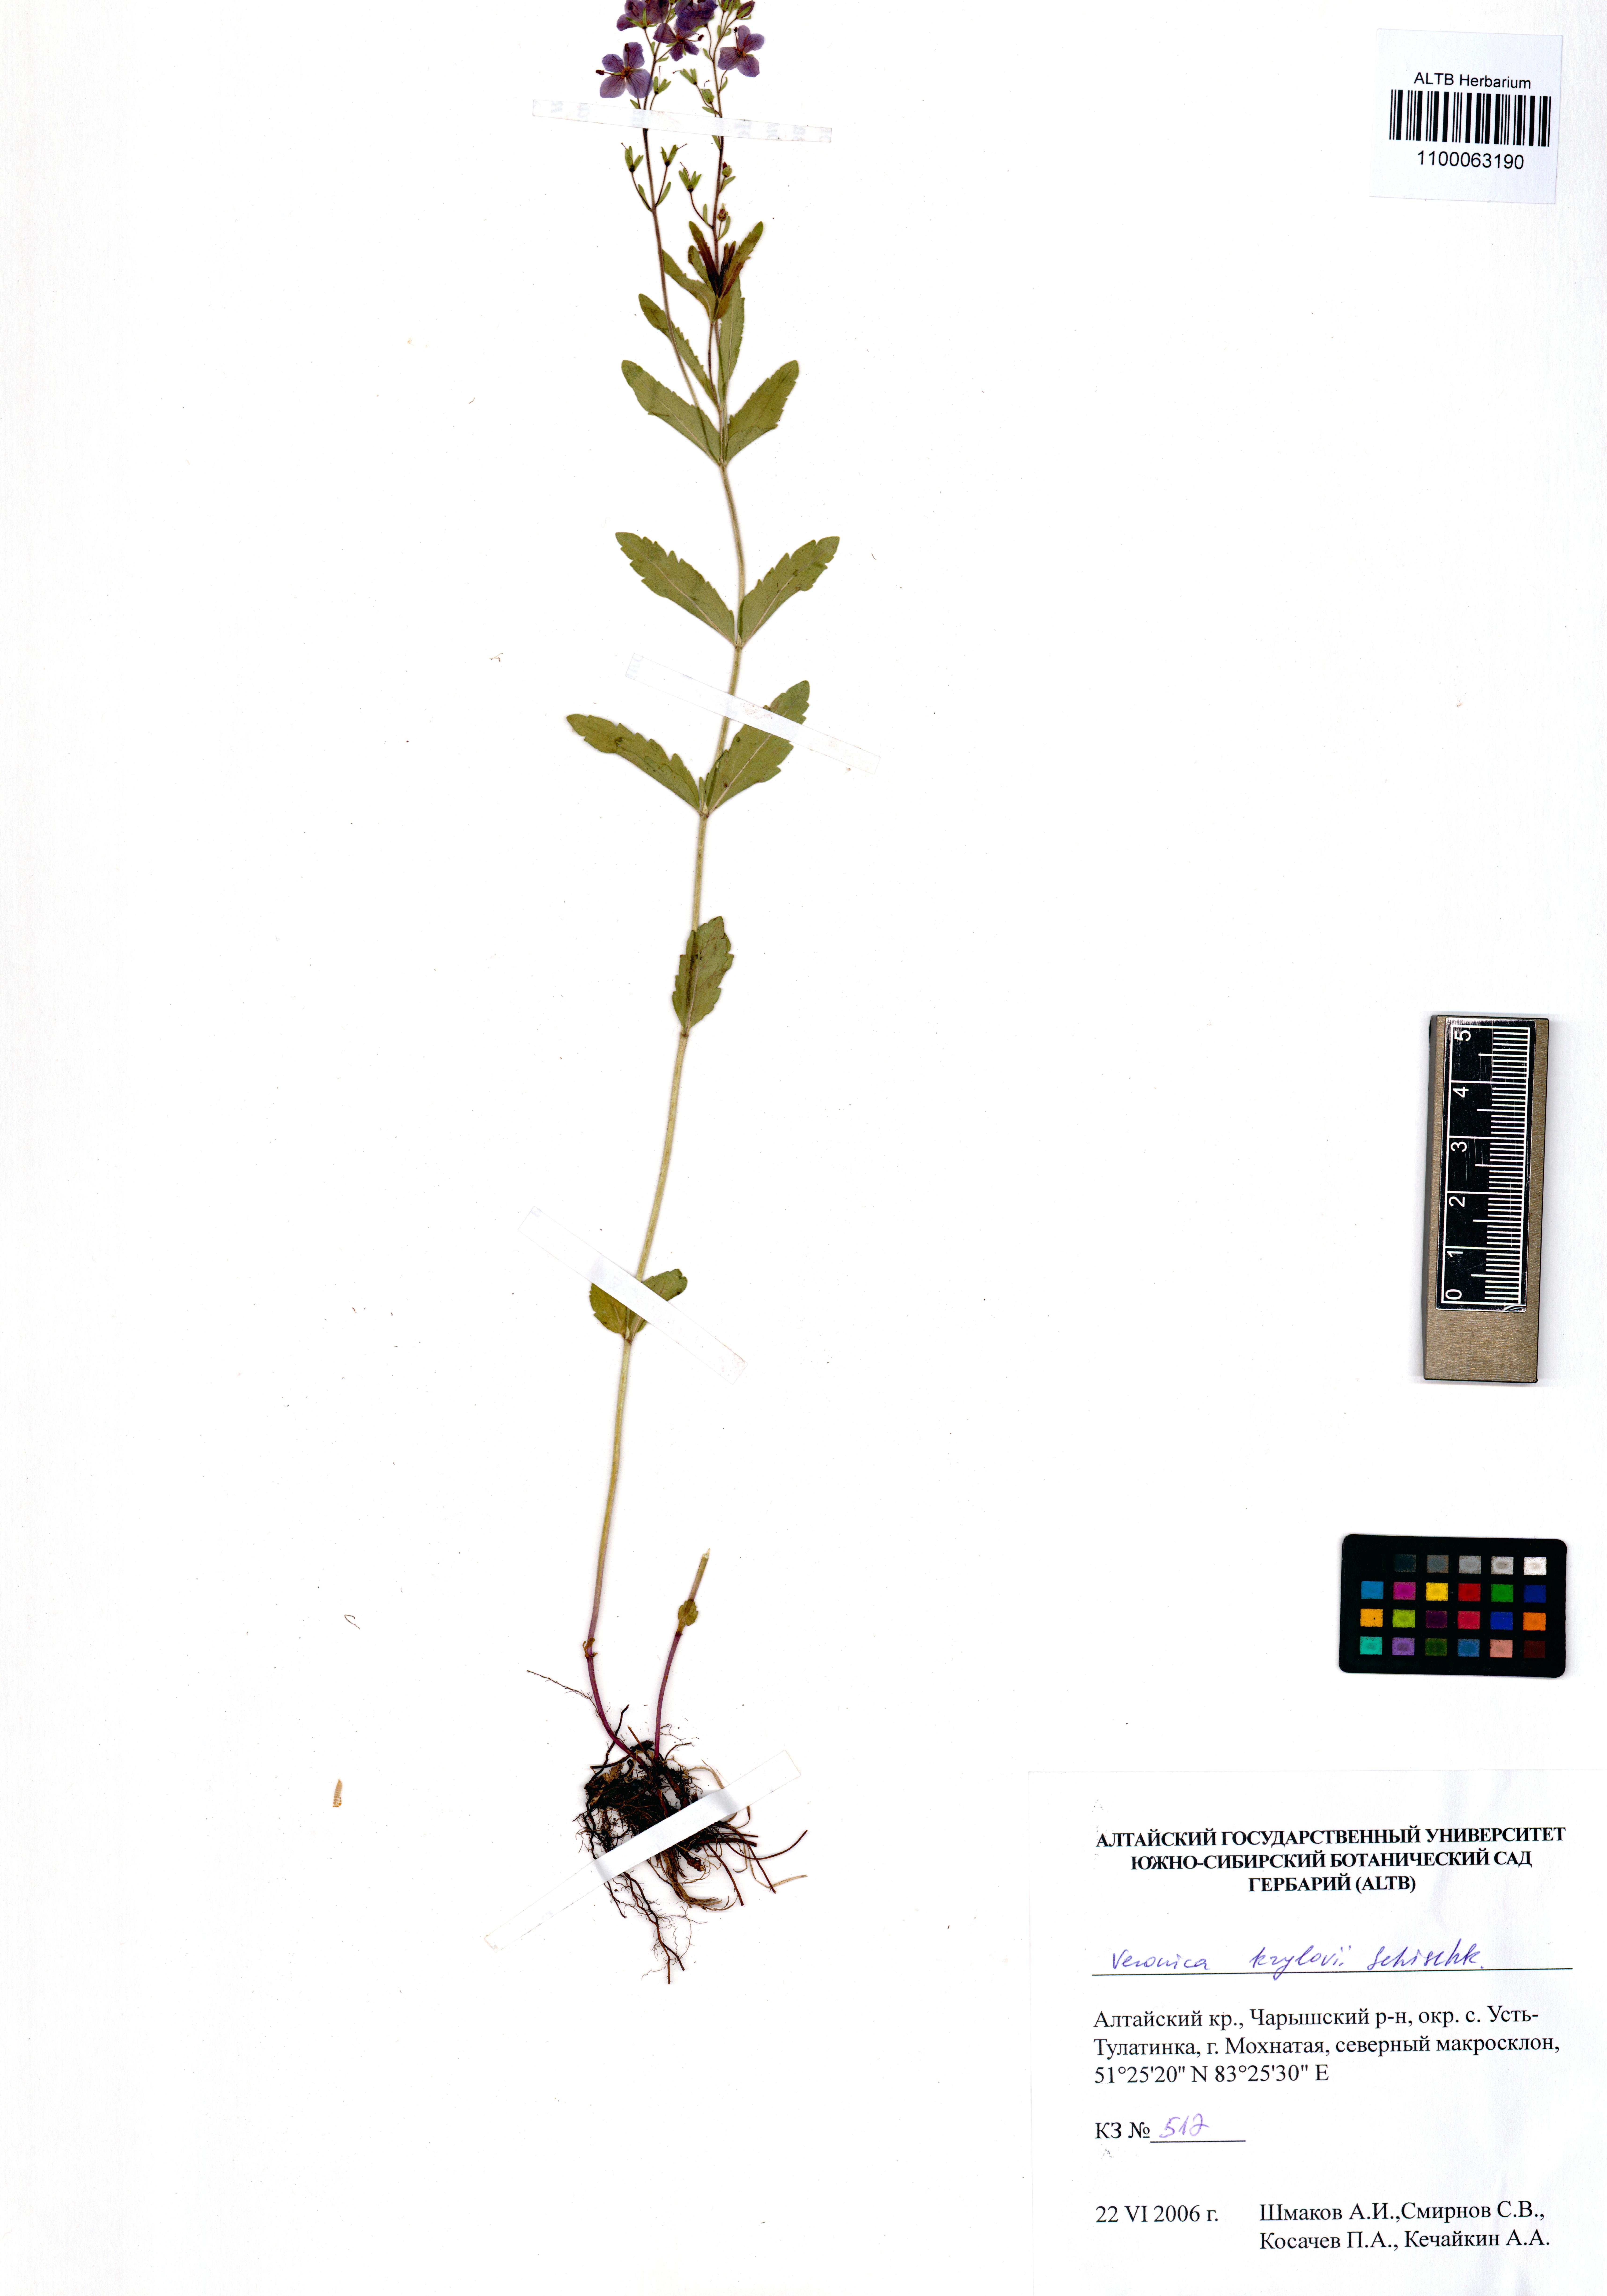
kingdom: Plantae
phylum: Tracheophyta
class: Magnoliopsida
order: Lamiales
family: Plantaginaceae
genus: Veronica
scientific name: Veronica krylovii
